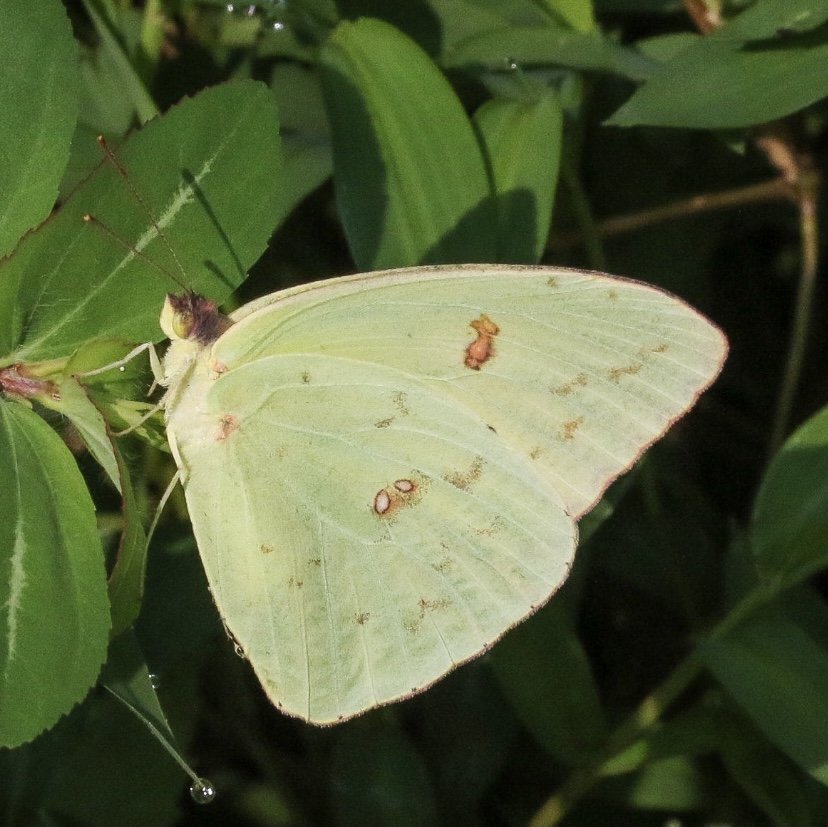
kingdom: Animalia
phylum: Arthropoda
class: Insecta
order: Lepidoptera
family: Pieridae
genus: Phoebis
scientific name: Phoebis sennae
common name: Cloudless Sulphur
